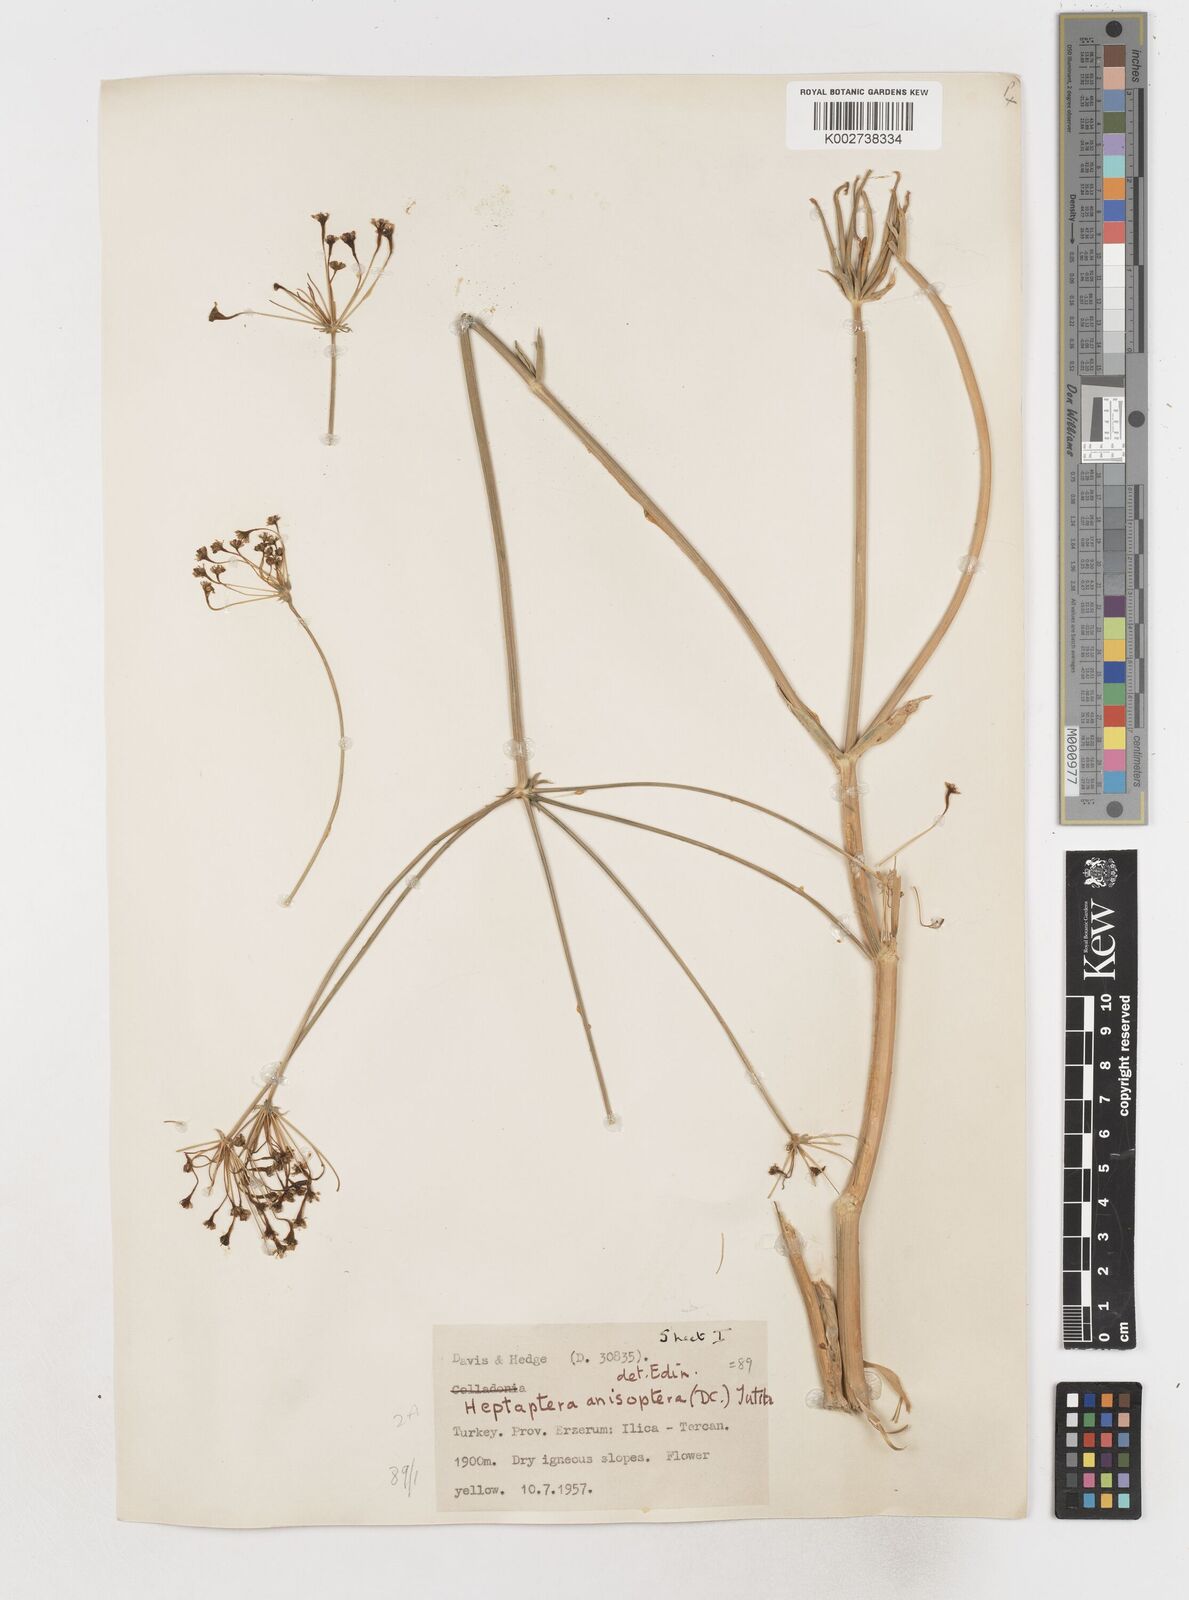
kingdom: Plantae
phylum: Tracheophyta
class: Magnoliopsida
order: Apiales
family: Apiaceae
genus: Heptaptera
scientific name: Heptaptera
